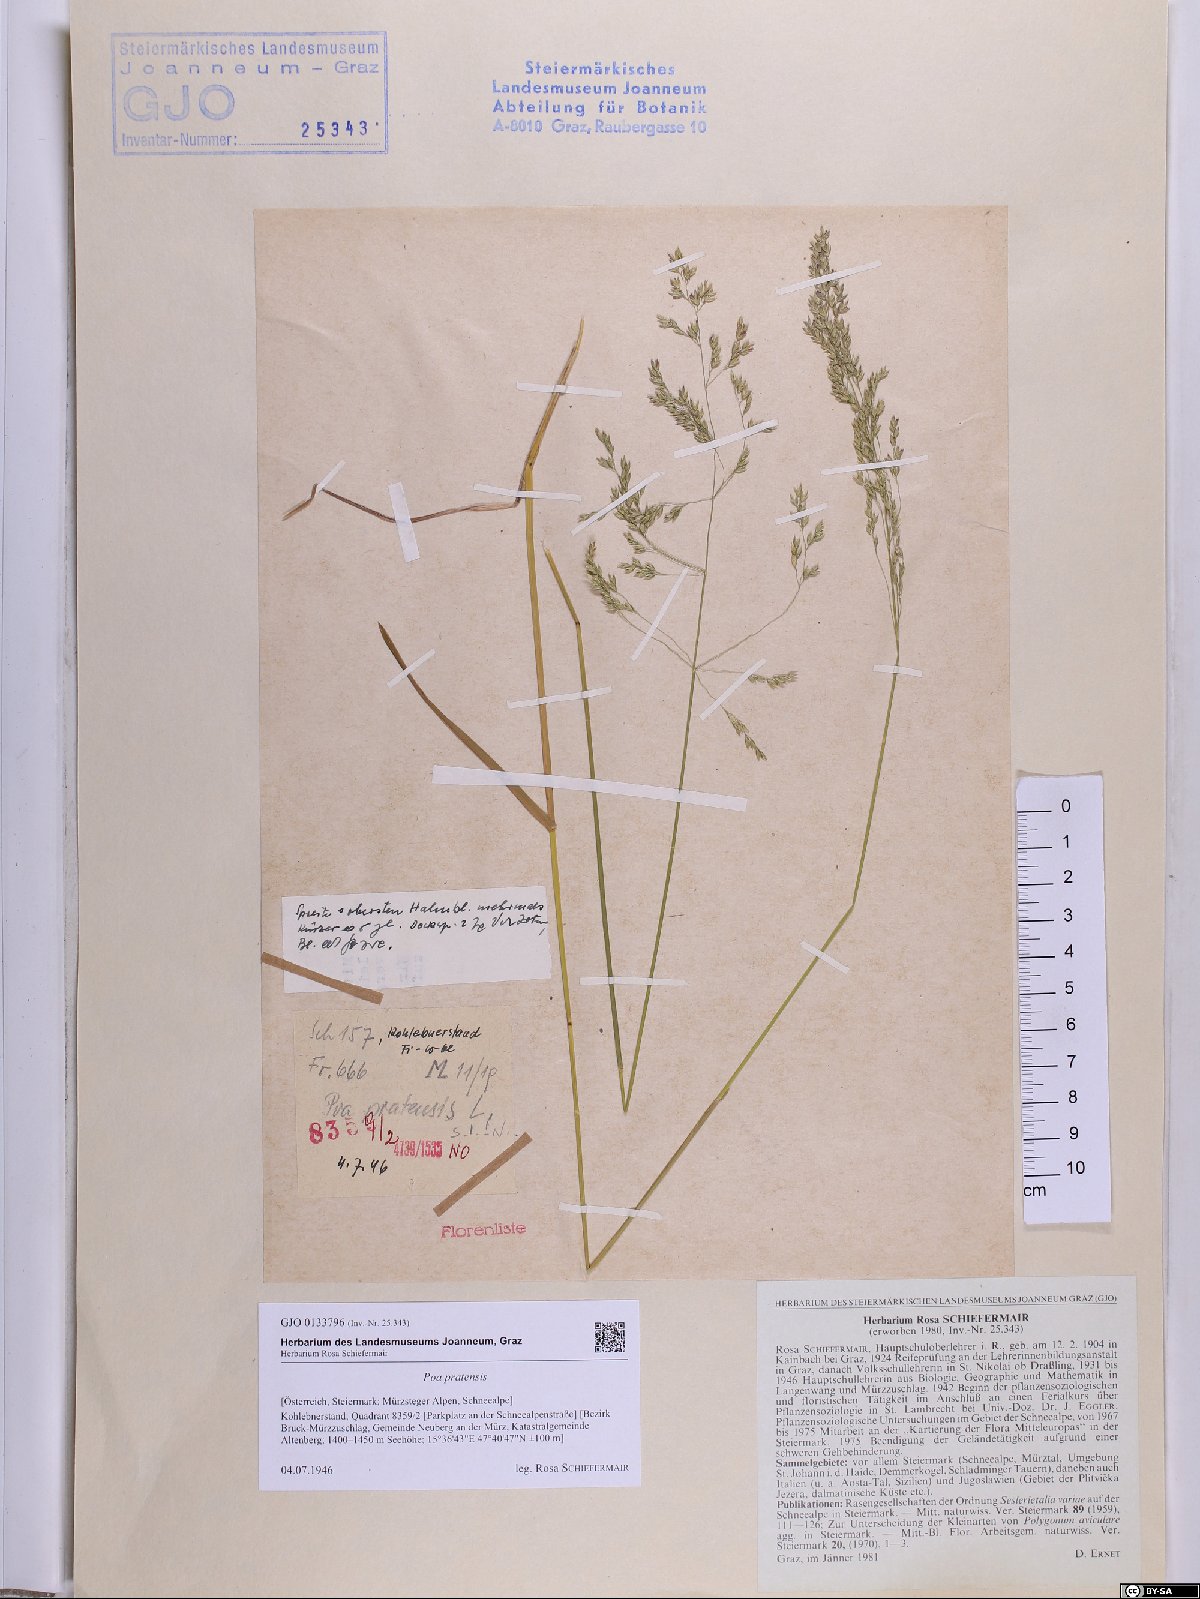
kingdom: Plantae
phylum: Tracheophyta
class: Liliopsida
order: Poales
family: Poaceae
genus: Poa
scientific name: Poa pratensis
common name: Kentucky bluegrass
